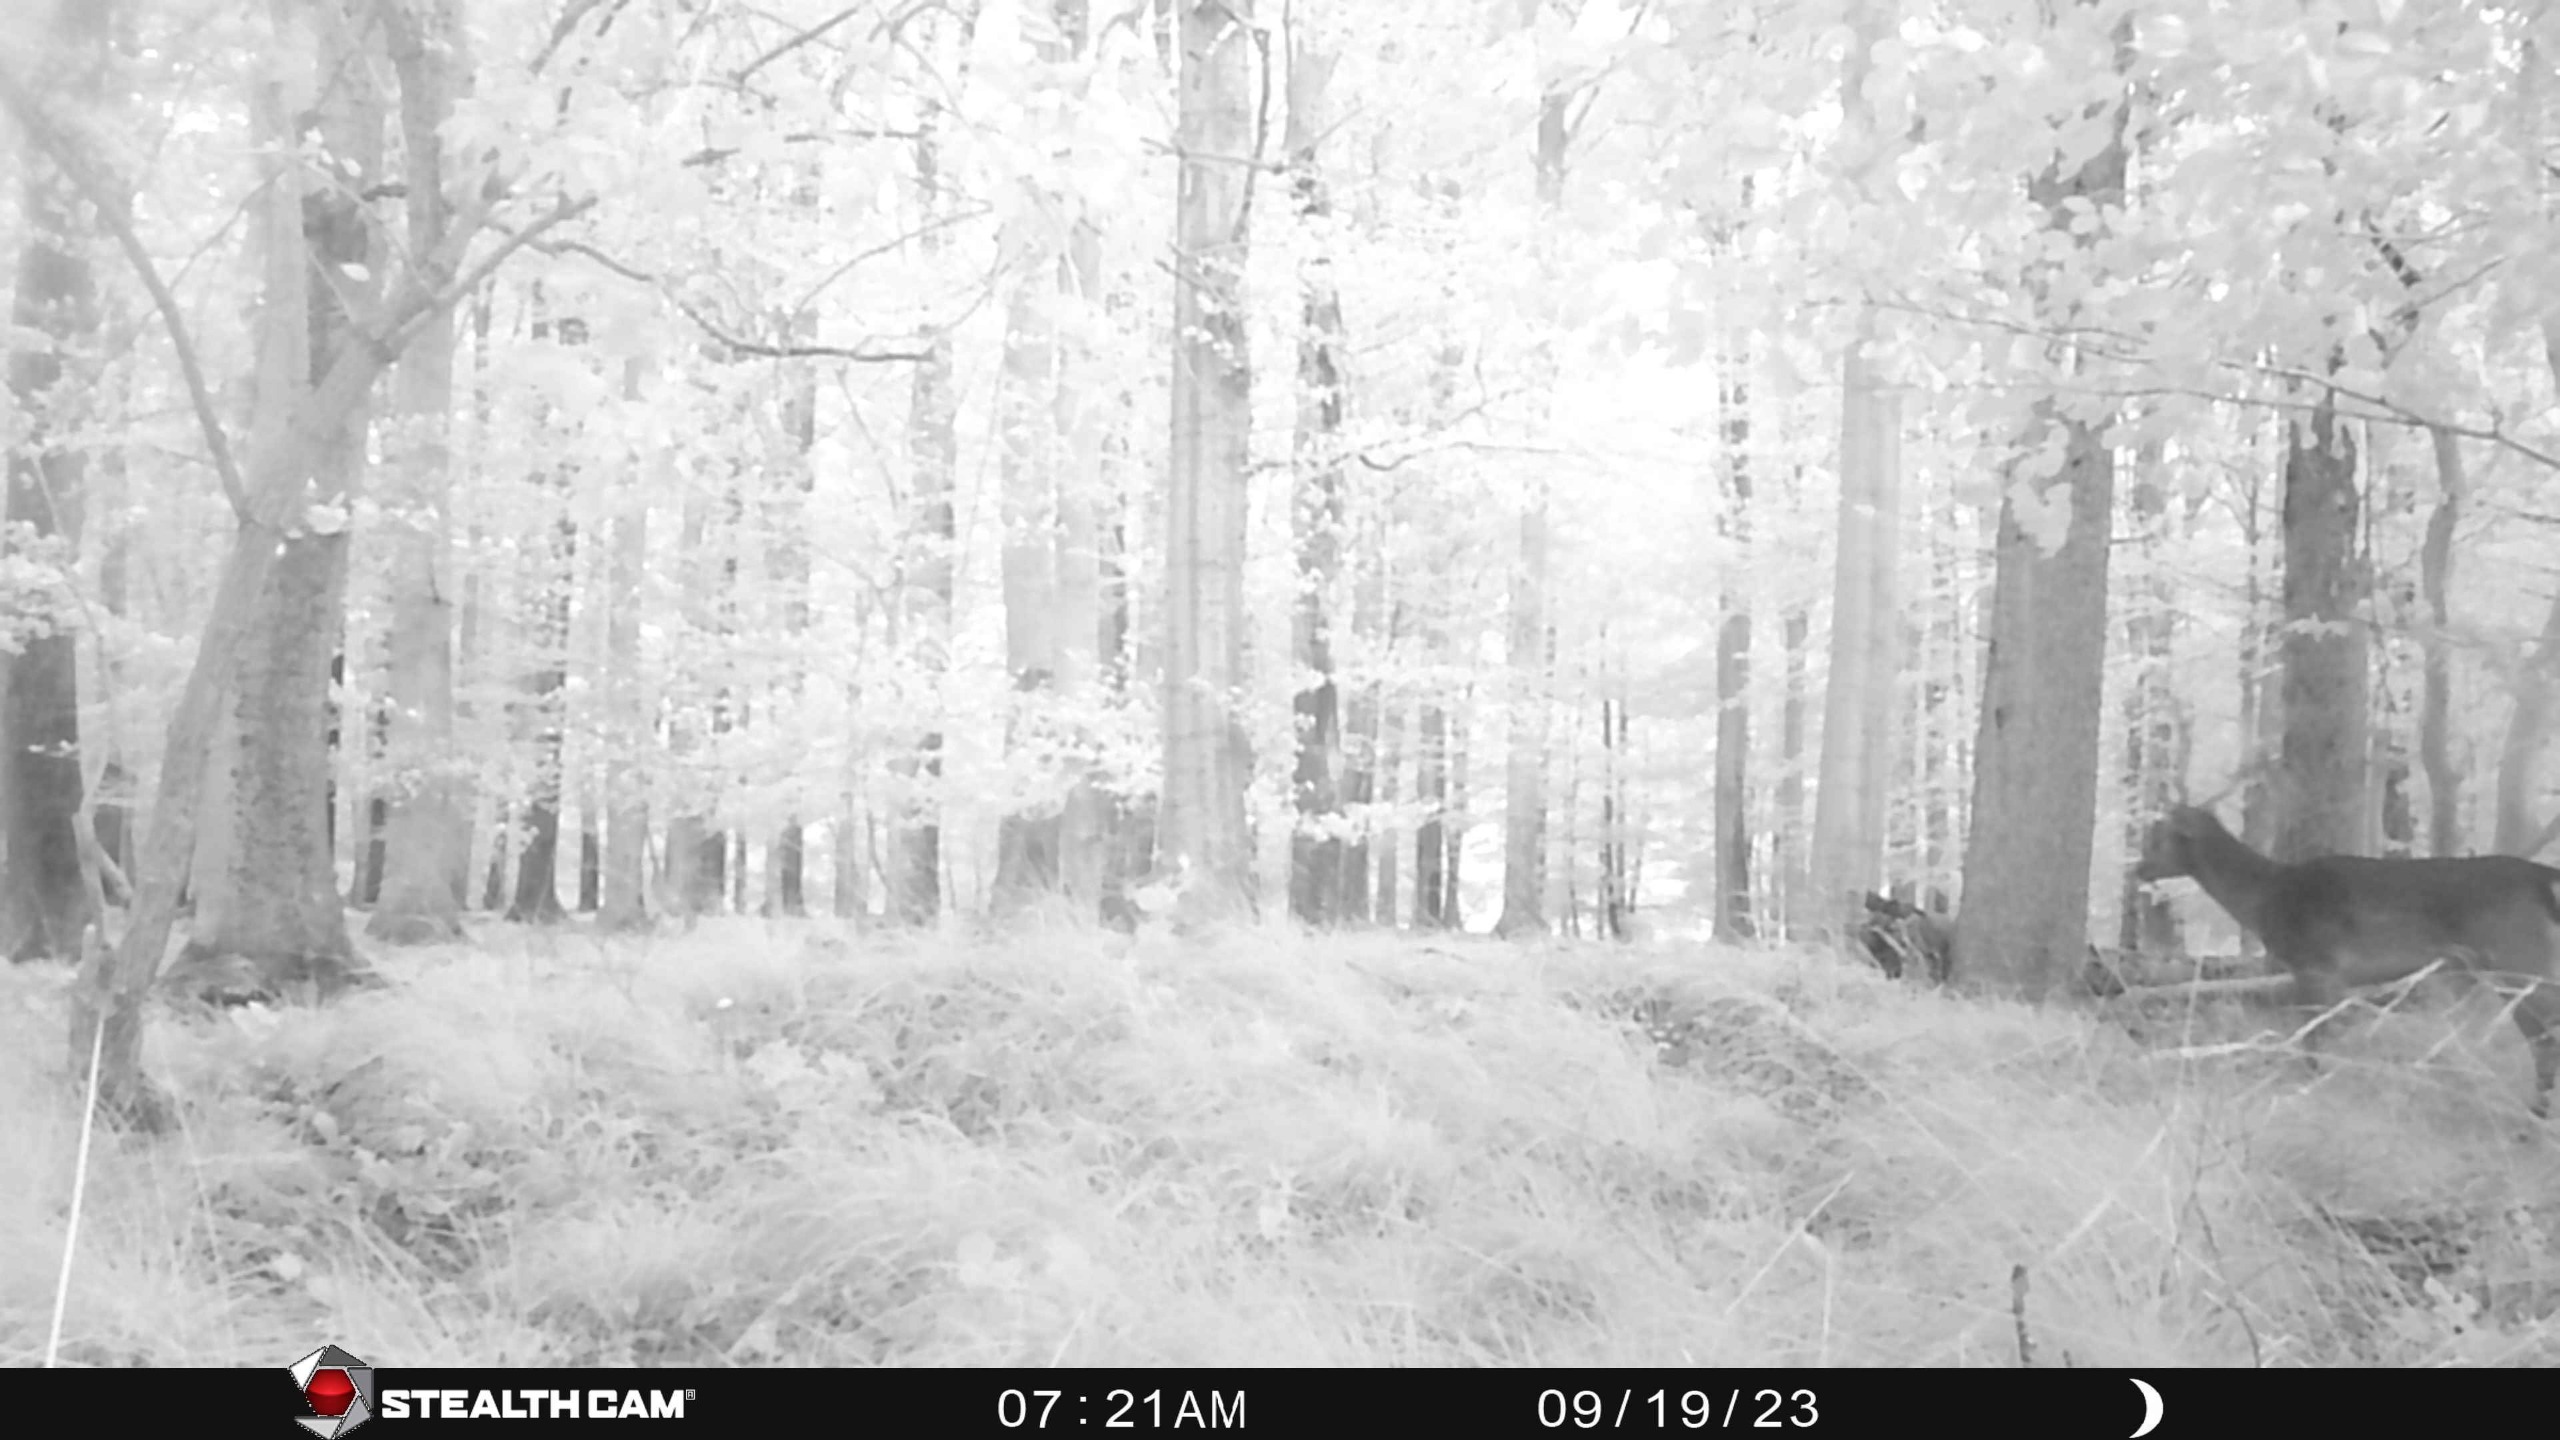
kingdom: Animalia
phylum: Chordata
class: Mammalia
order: Artiodactyla
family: Cervidae
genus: Dama
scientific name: Dama dama
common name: Dådyr
